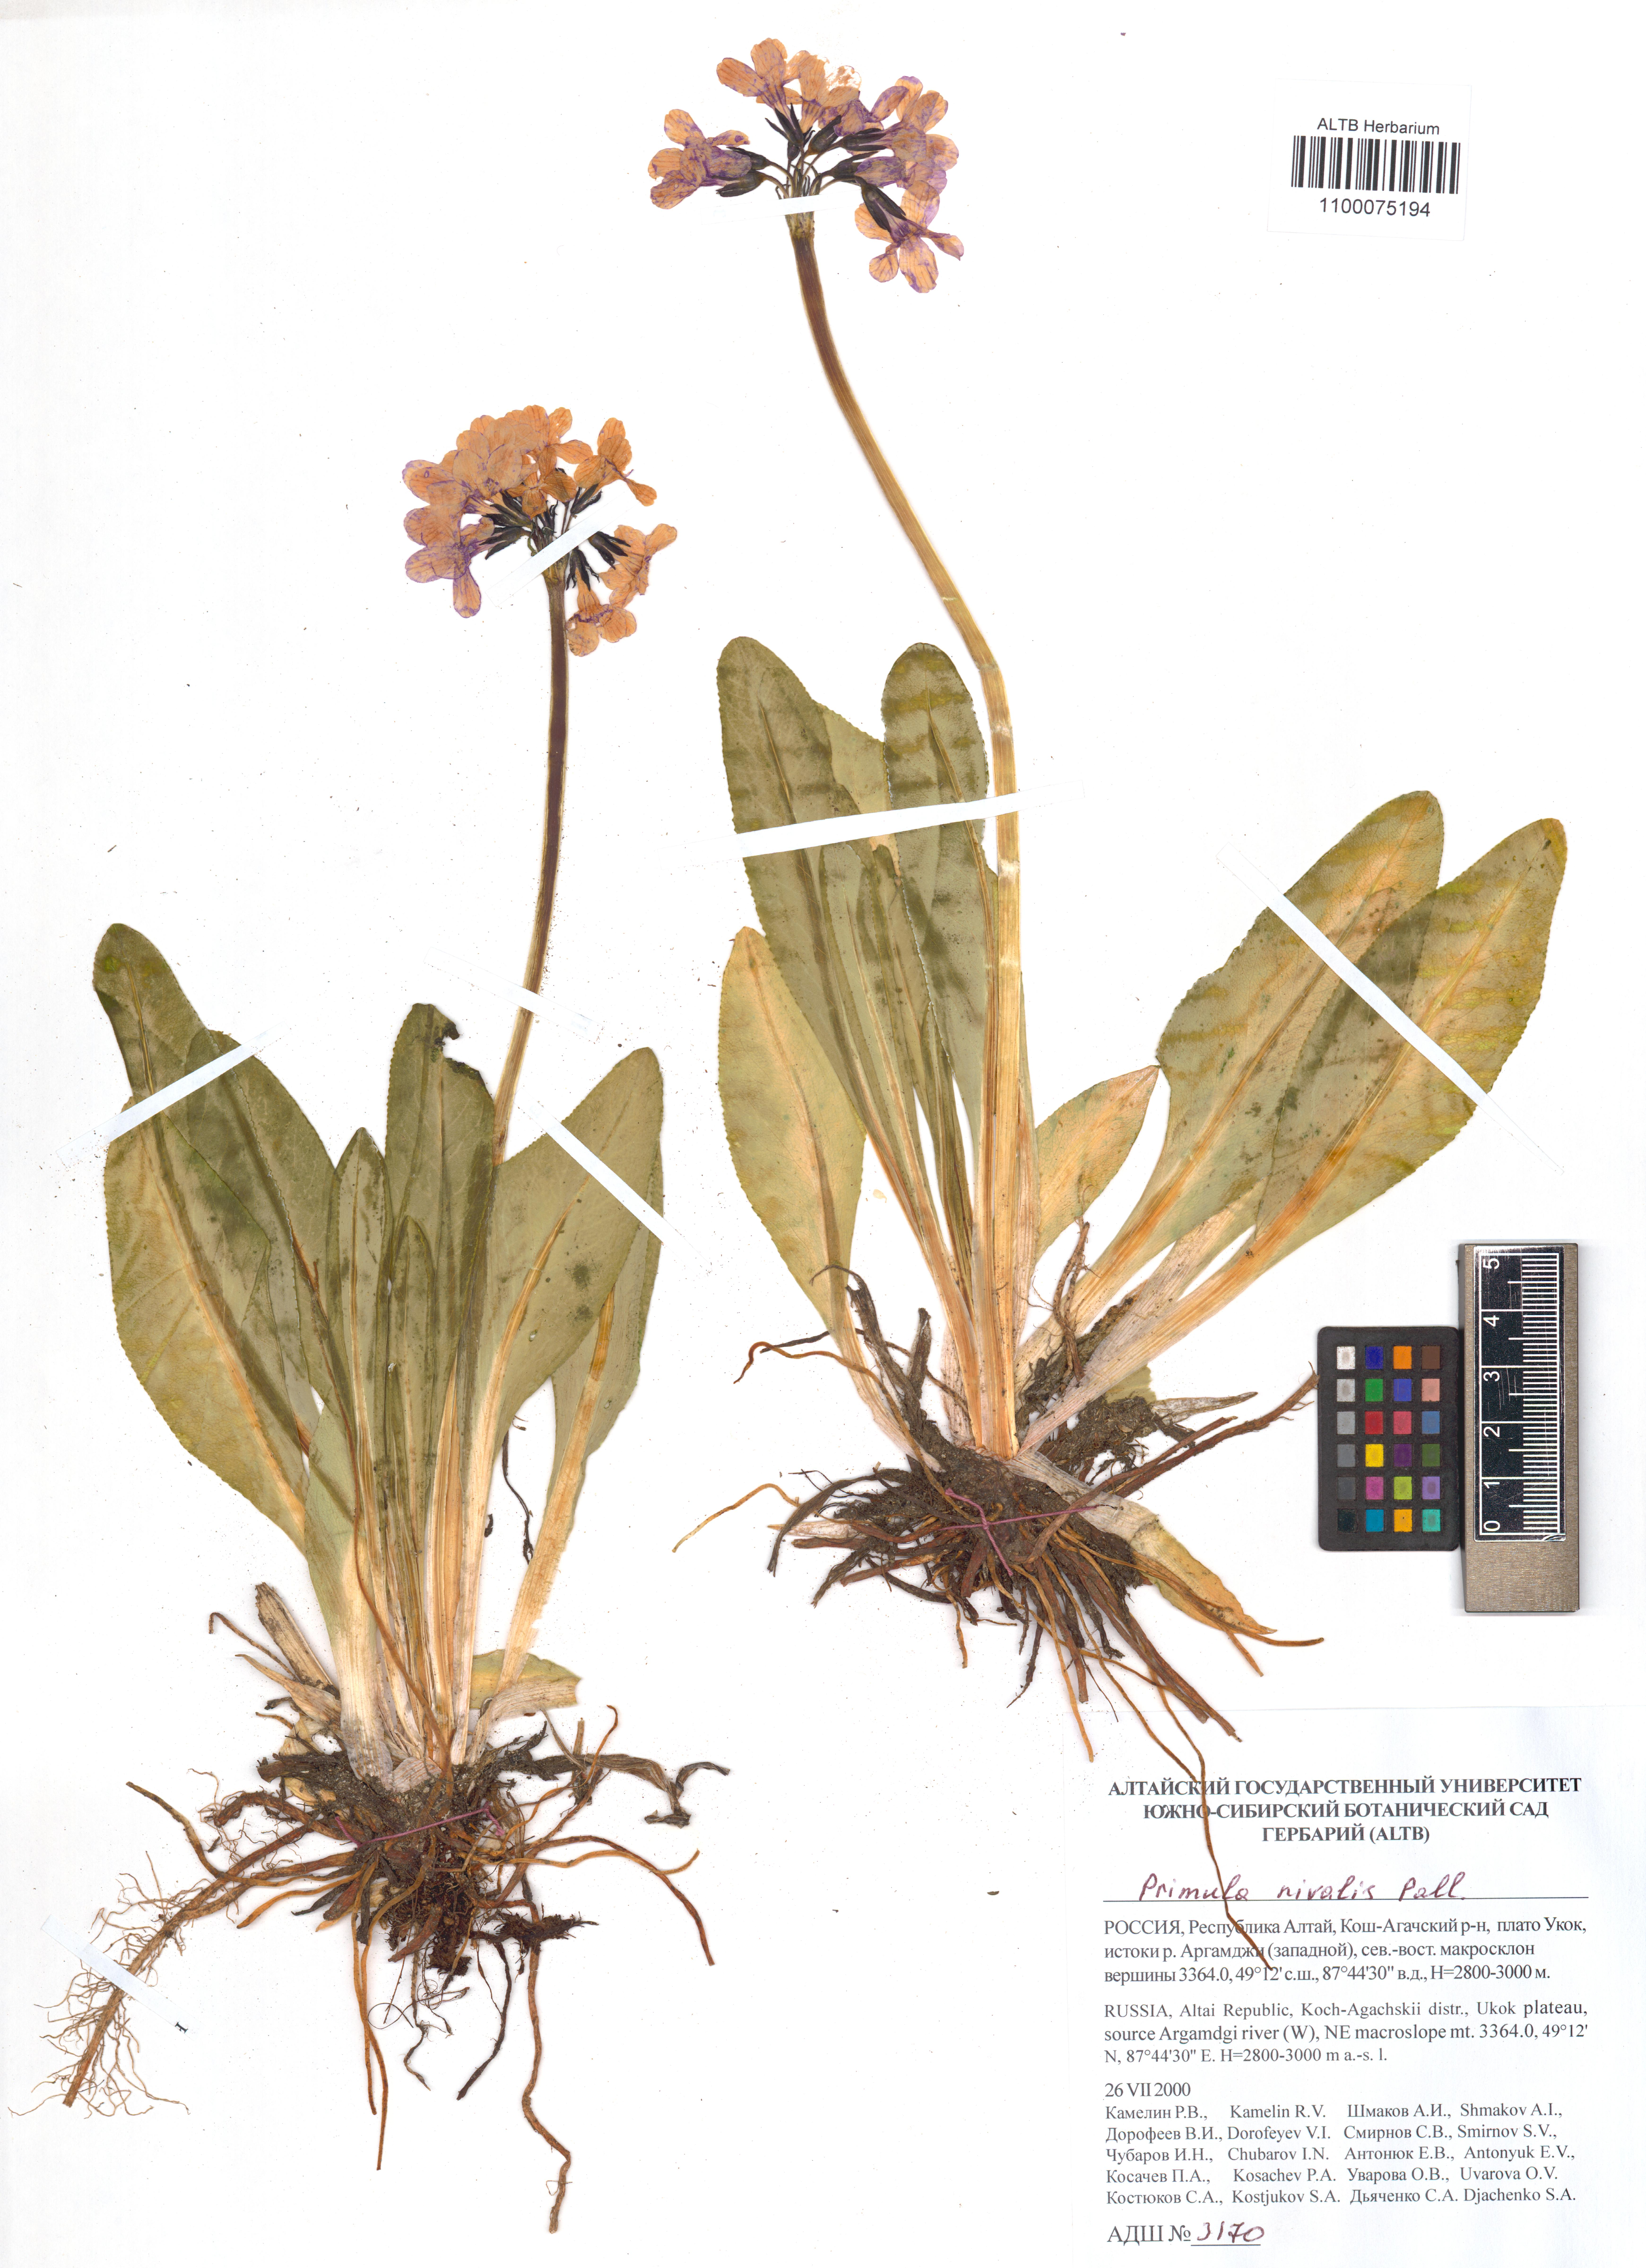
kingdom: Plantae
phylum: Tracheophyta
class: Magnoliopsida
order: Ericales
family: Primulaceae
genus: Primula
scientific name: Primula nivalis
